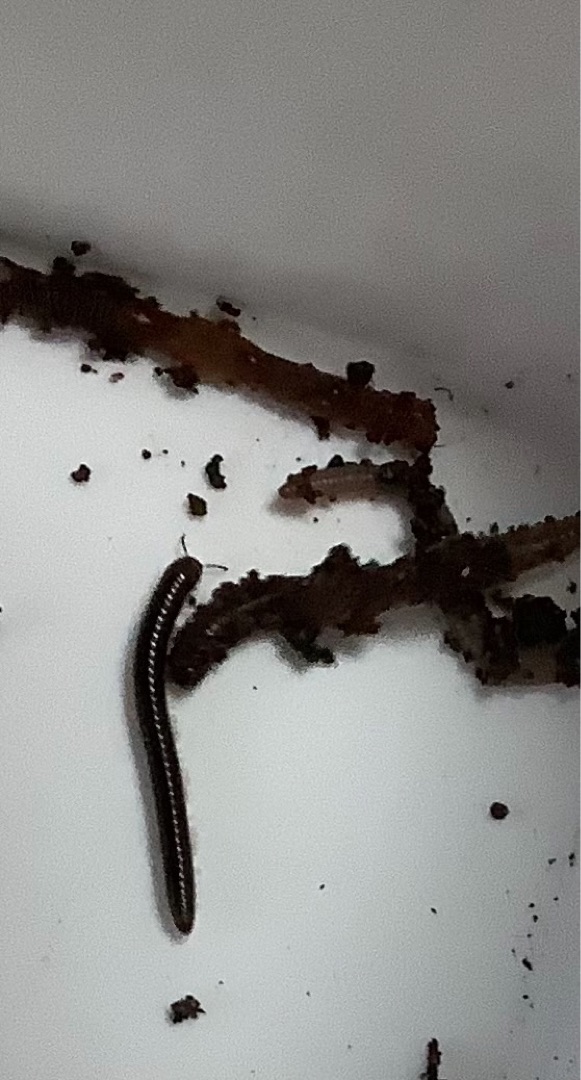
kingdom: Animalia
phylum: Arthropoda
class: Diplopoda
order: Julida
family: Julidae
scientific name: Julidae
